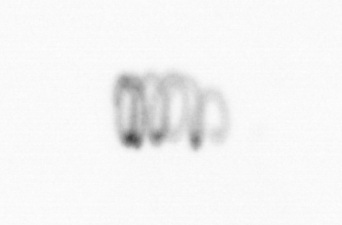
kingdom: Chromista
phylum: Ochrophyta
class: Bacillariophyceae
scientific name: Bacillariophyceae
